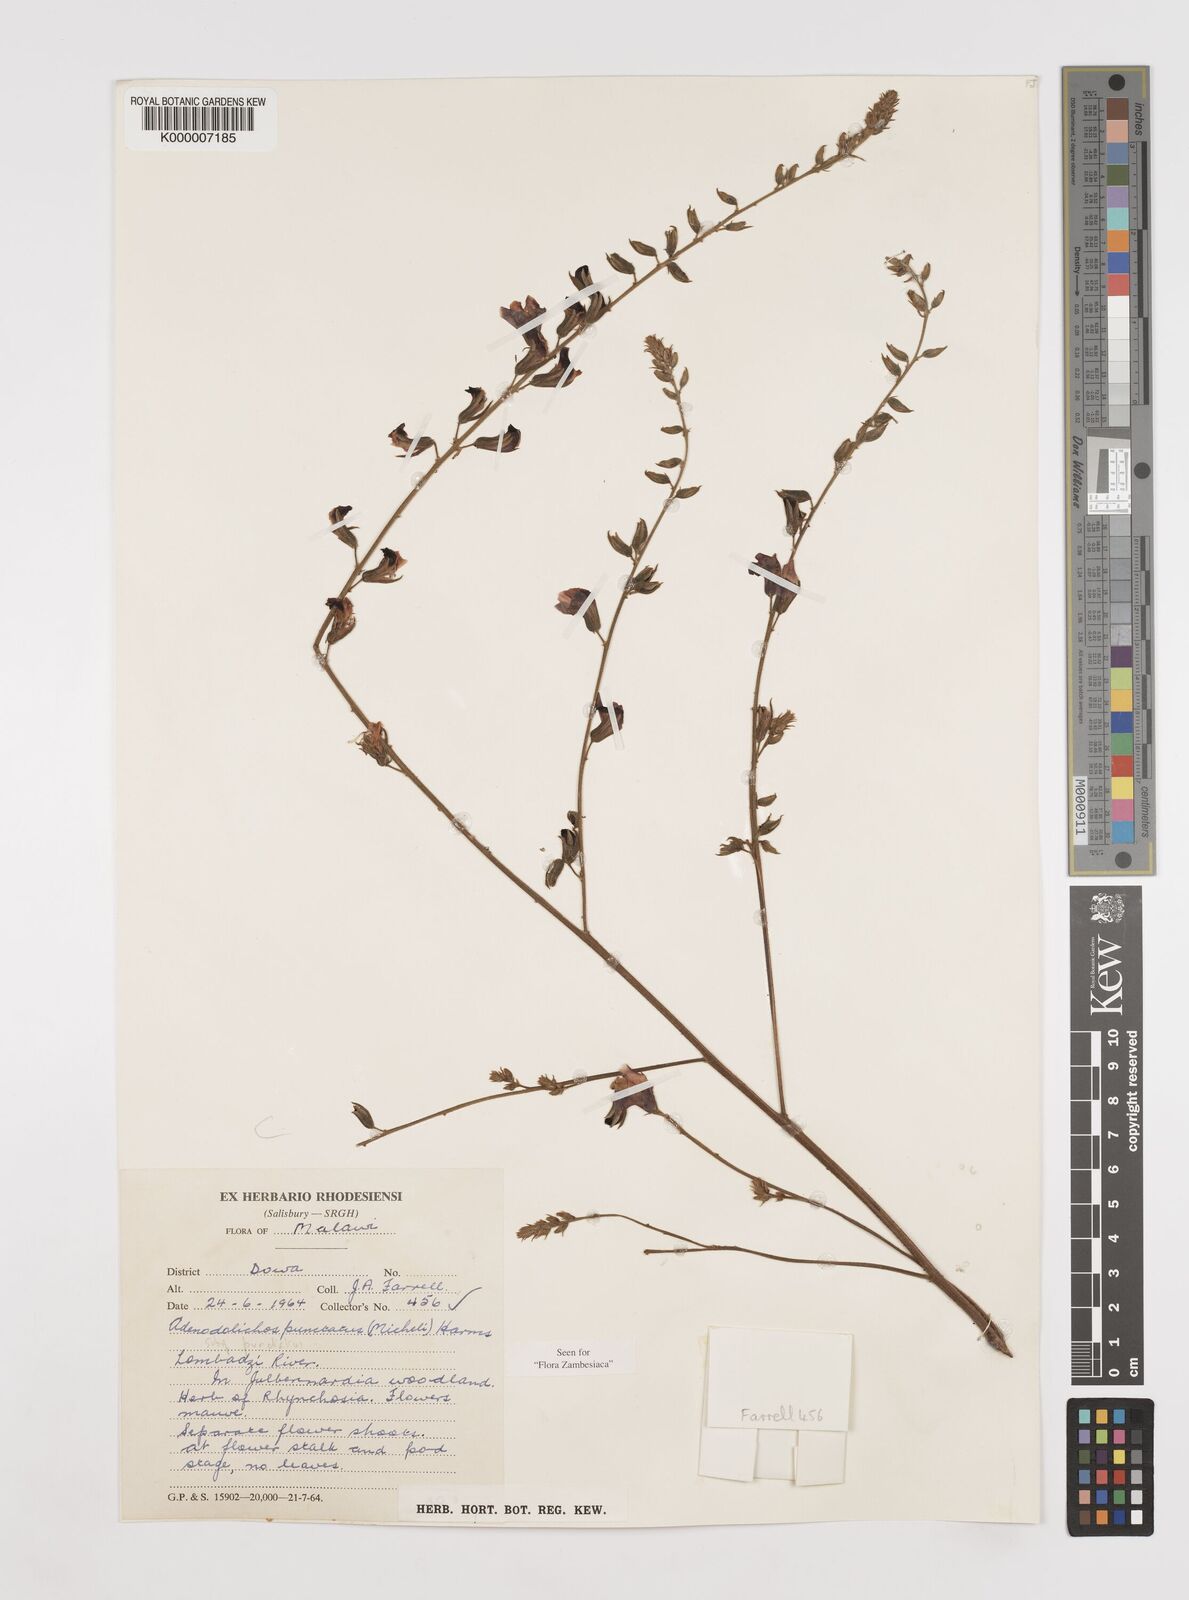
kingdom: Plantae
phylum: Tracheophyta
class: Magnoliopsida
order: Fabales
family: Fabaceae
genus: Adenodolichos
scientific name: Adenodolichos punctatus
